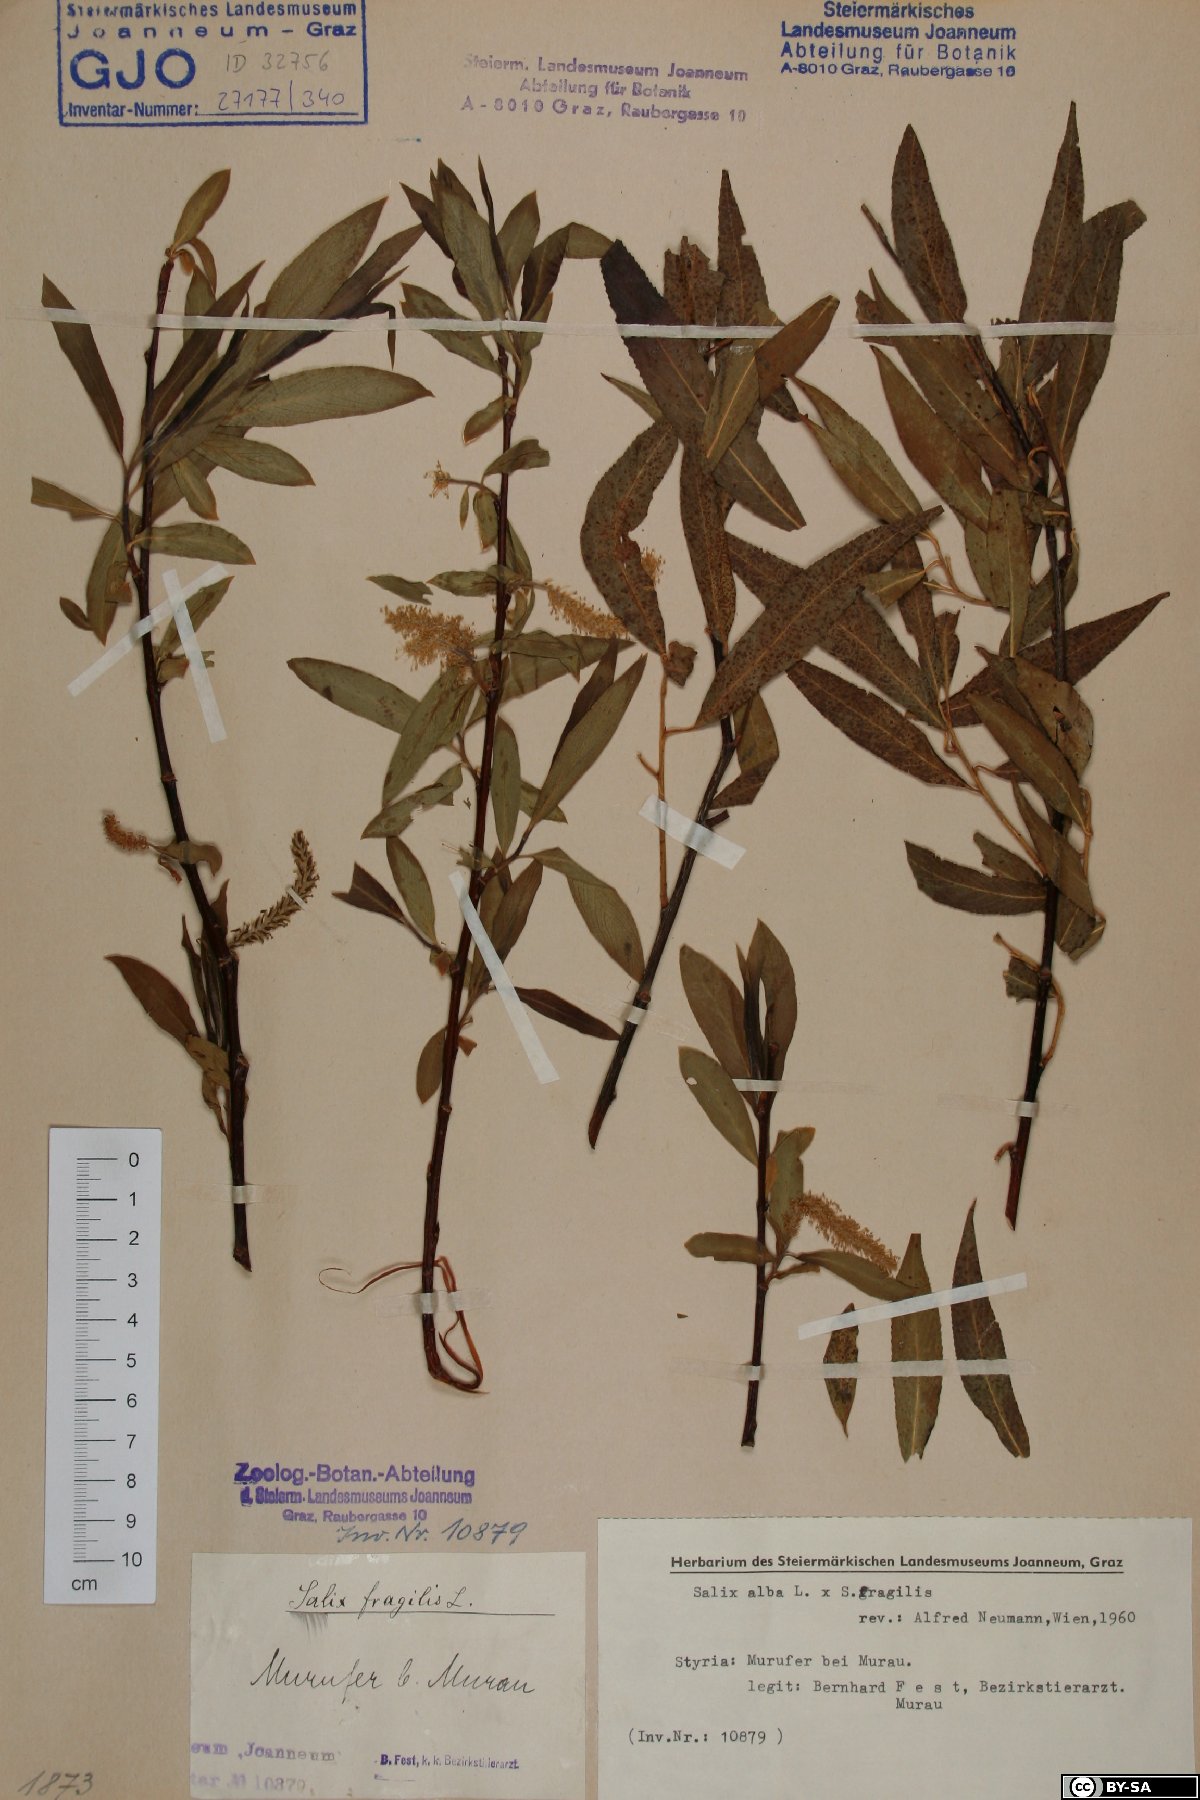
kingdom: Plantae
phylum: Tracheophyta
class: Magnoliopsida
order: Malpighiales
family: Salicaceae
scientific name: Salicaceae
